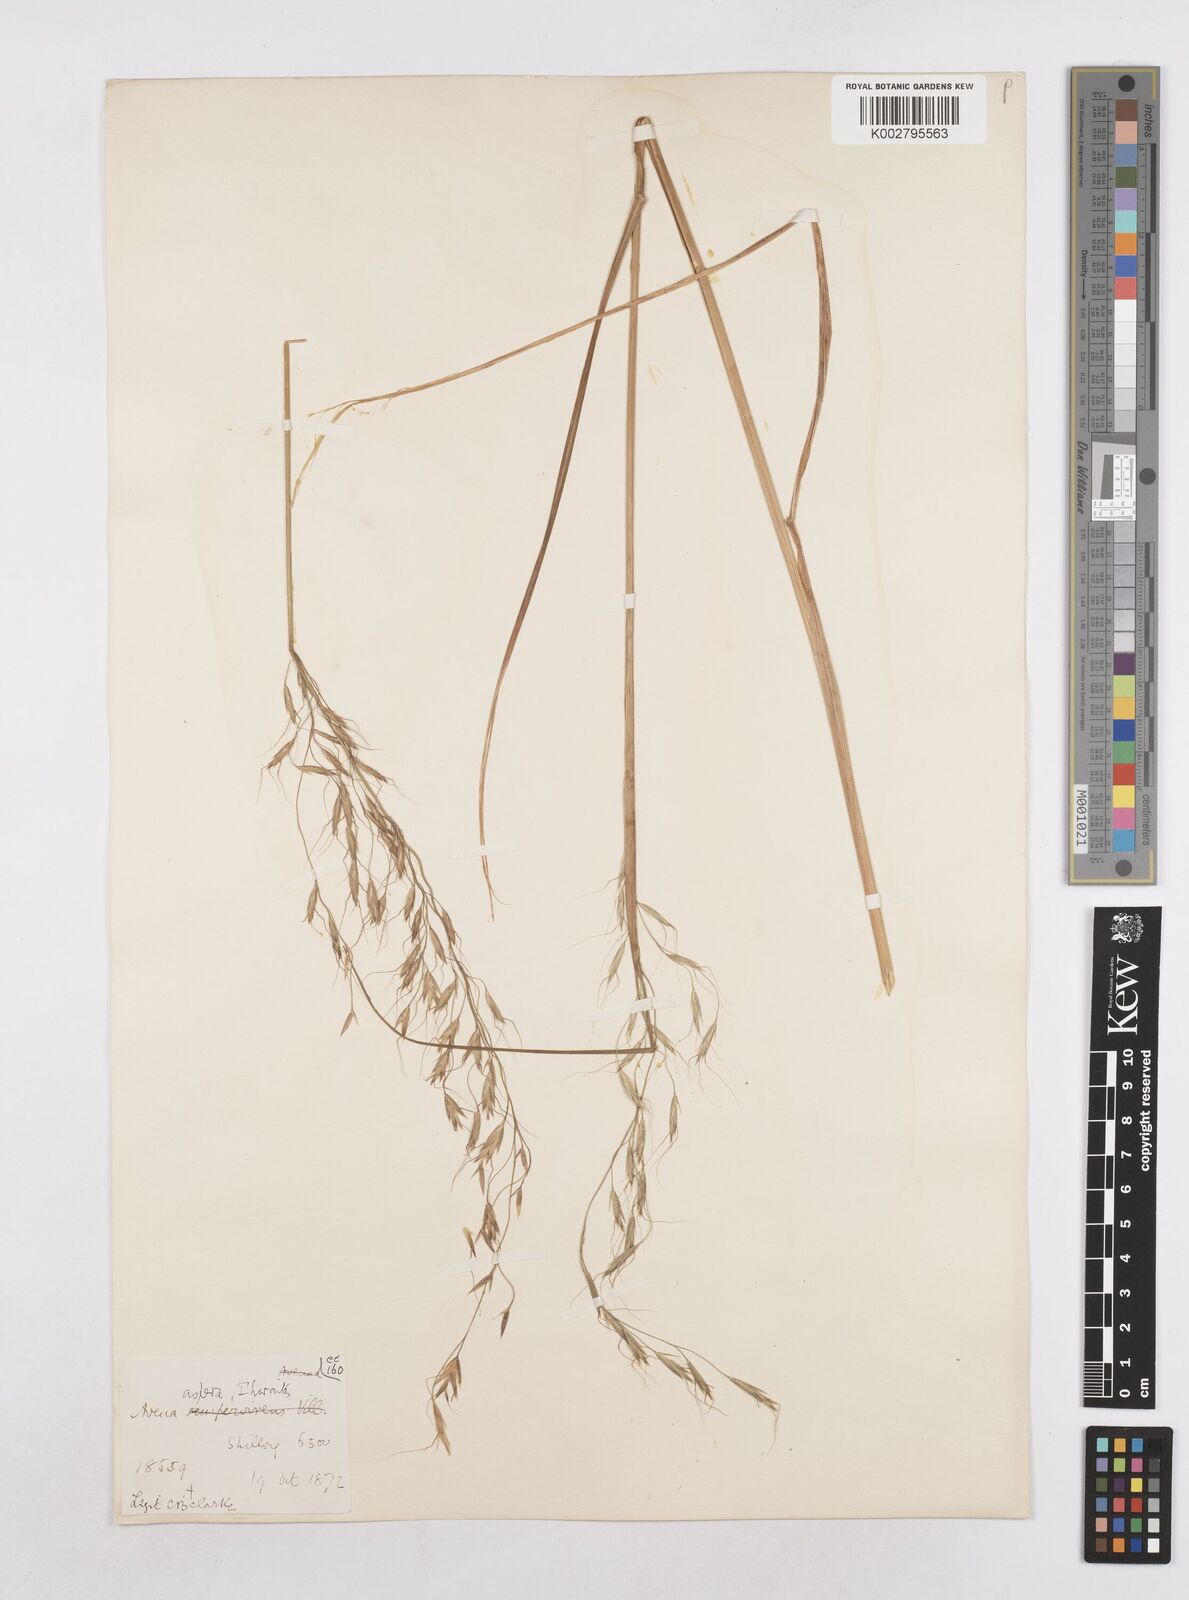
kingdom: Plantae
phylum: Tracheophyta
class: Liliopsida
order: Poales
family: Poaceae
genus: Trisetopsis
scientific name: Trisetopsis junghuhnii
